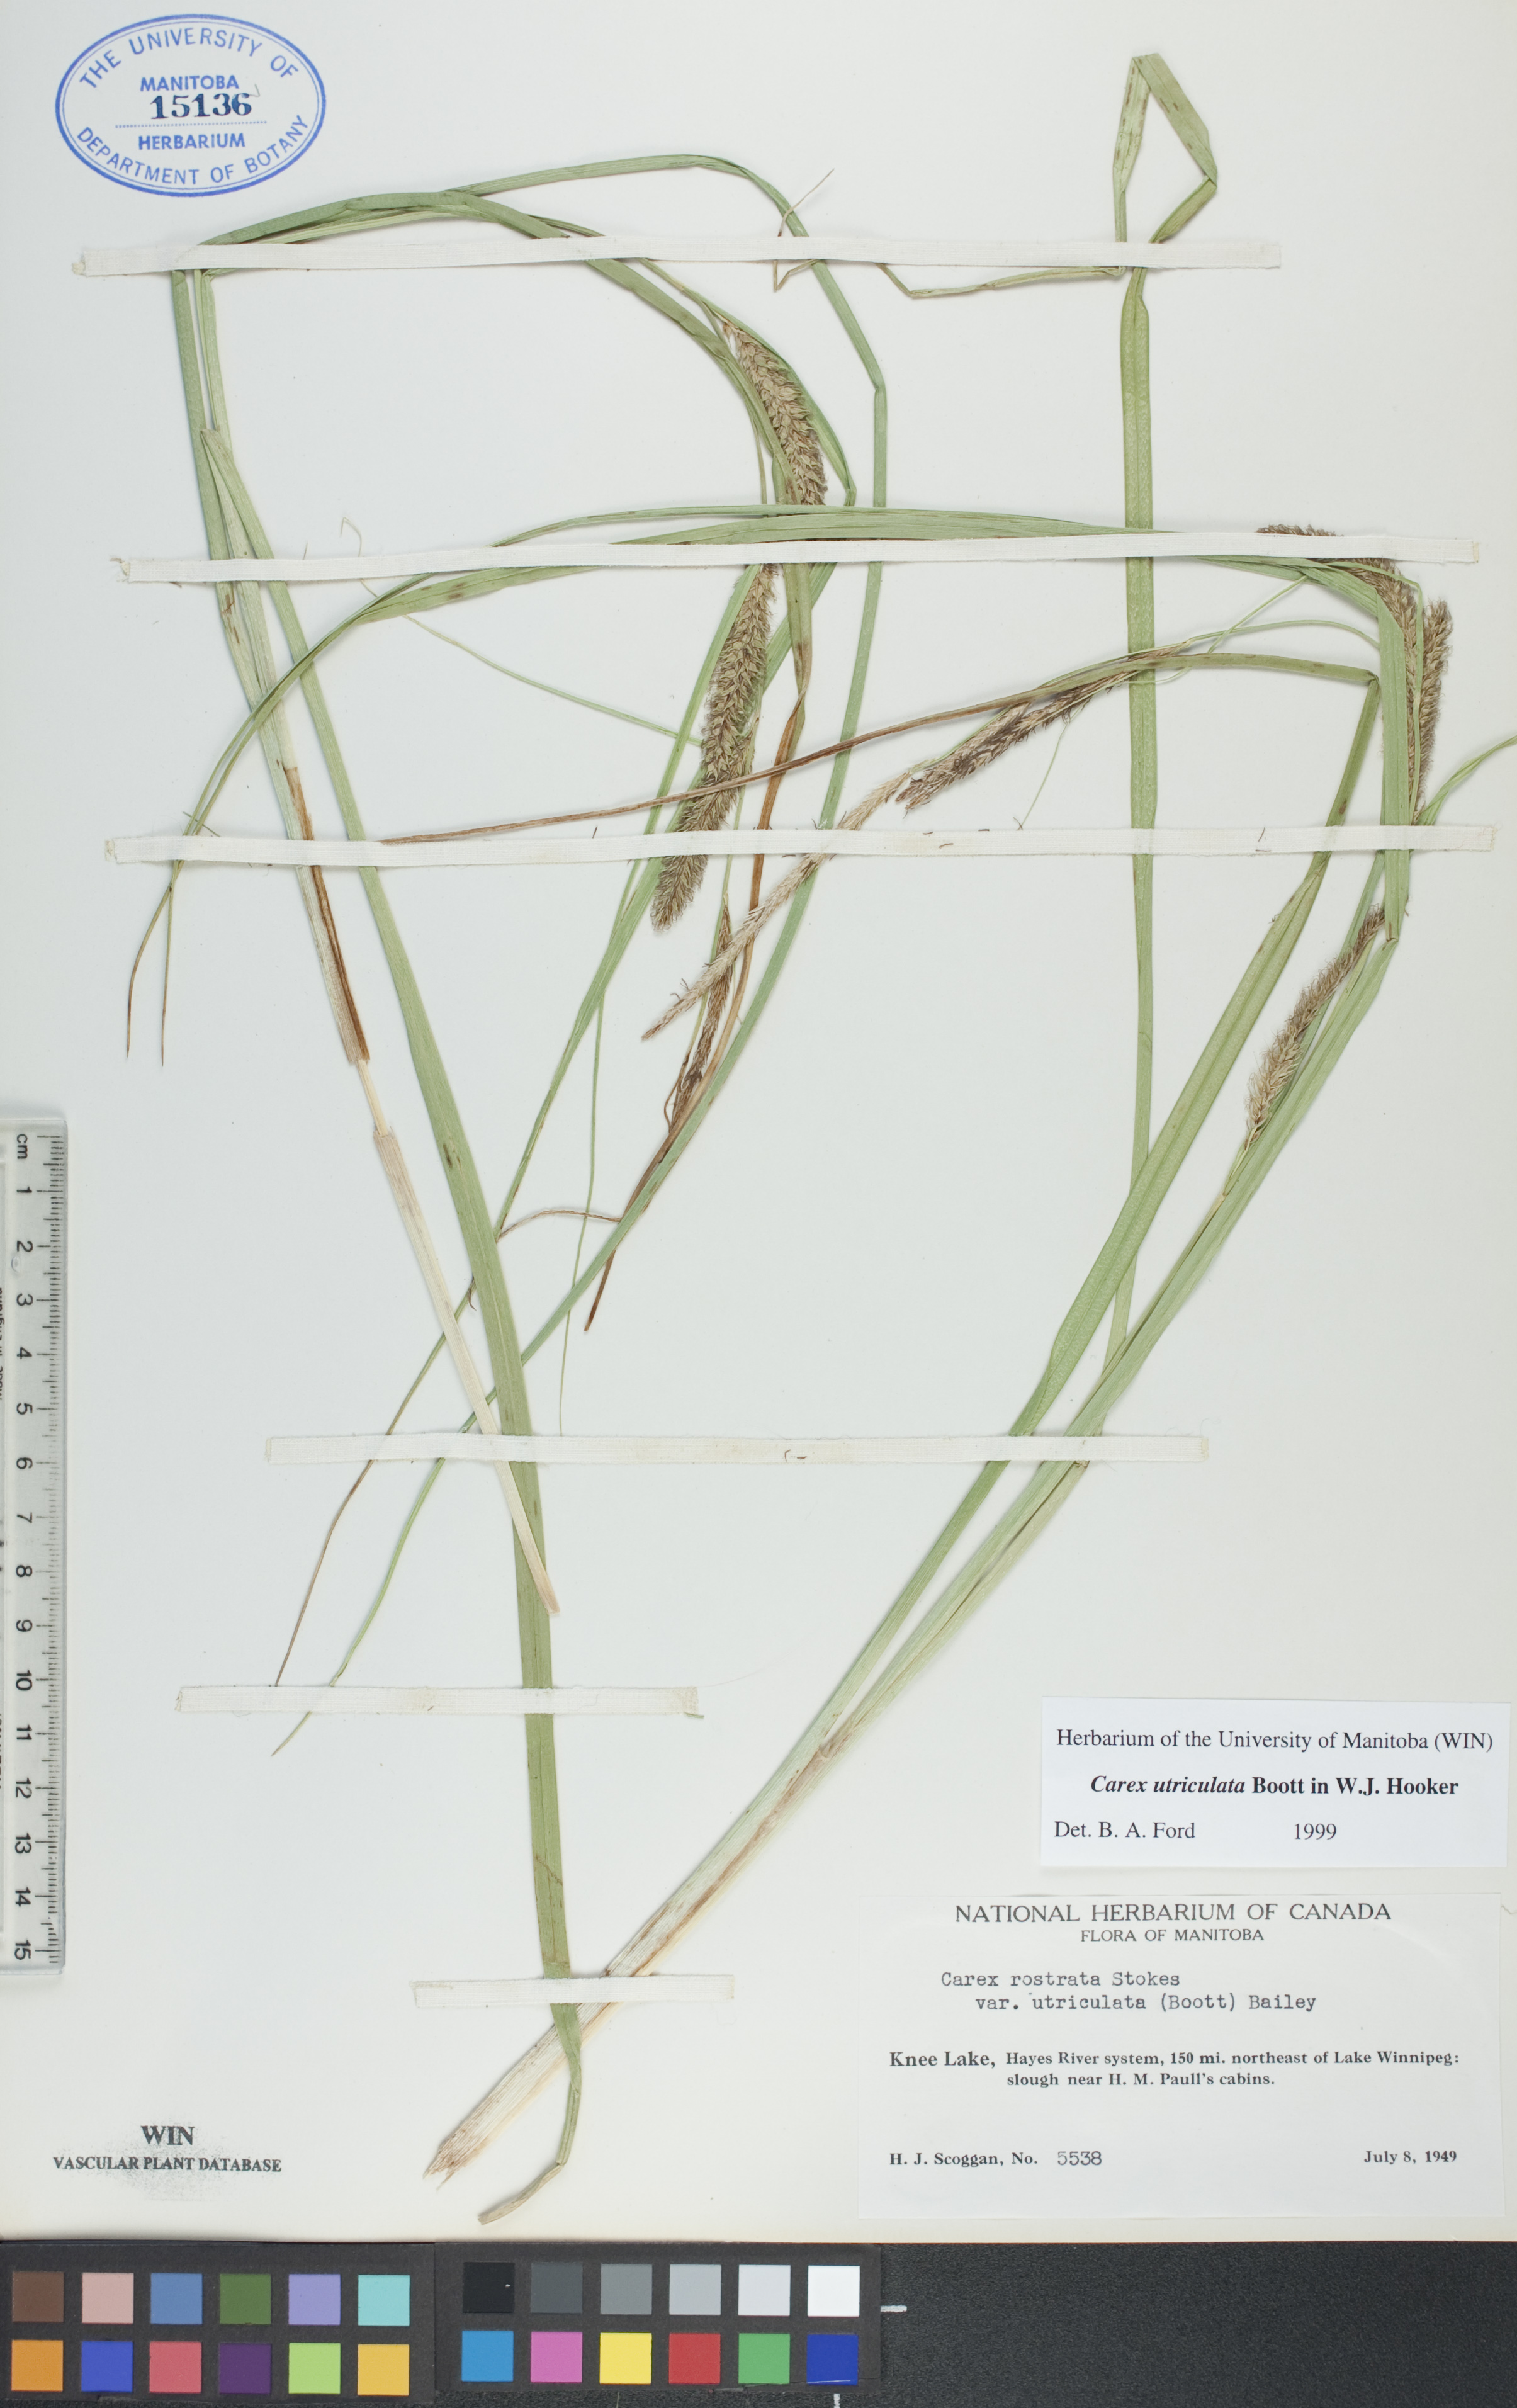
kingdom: Plantae
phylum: Tracheophyta
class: Liliopsida
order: Poales
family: Cyperaceae
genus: Carex
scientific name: Carex utriculata
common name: Beaked sedge
